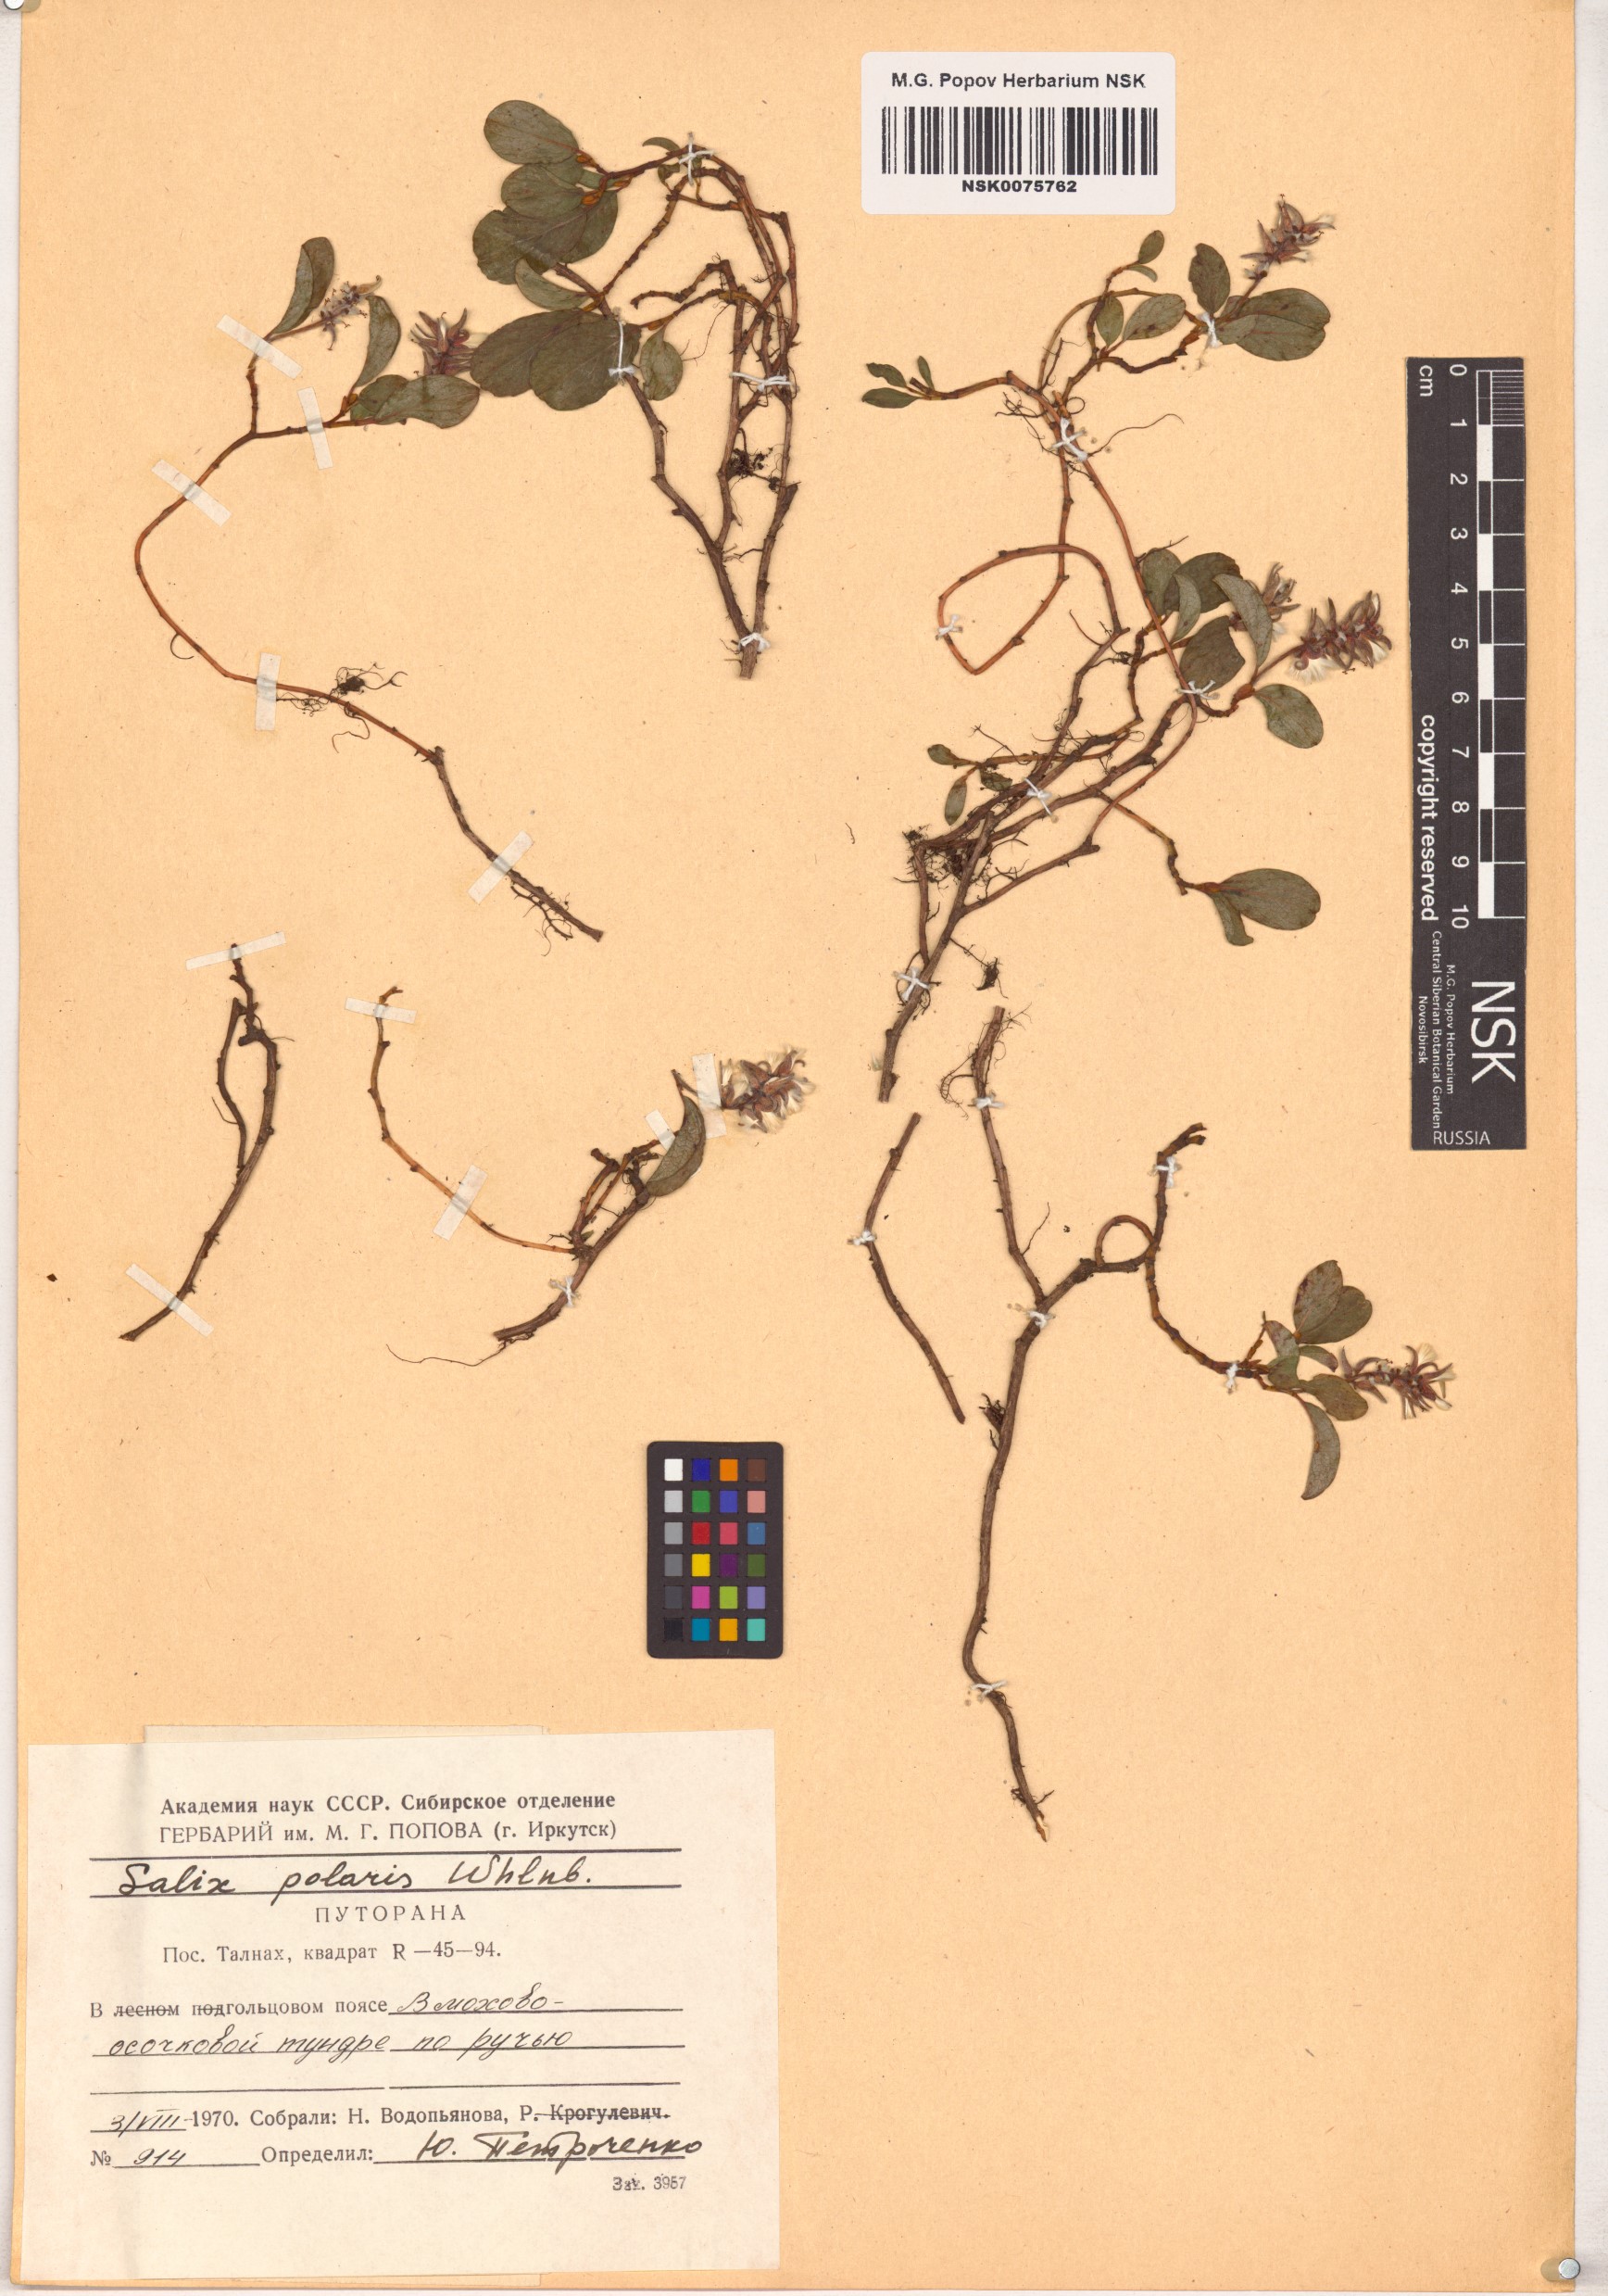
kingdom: Plantae
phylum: Tracheophyta
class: Magnoliopsida
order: Malpighiales
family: Salicaceae
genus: Salix
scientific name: Salix polaris
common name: Polar willow
